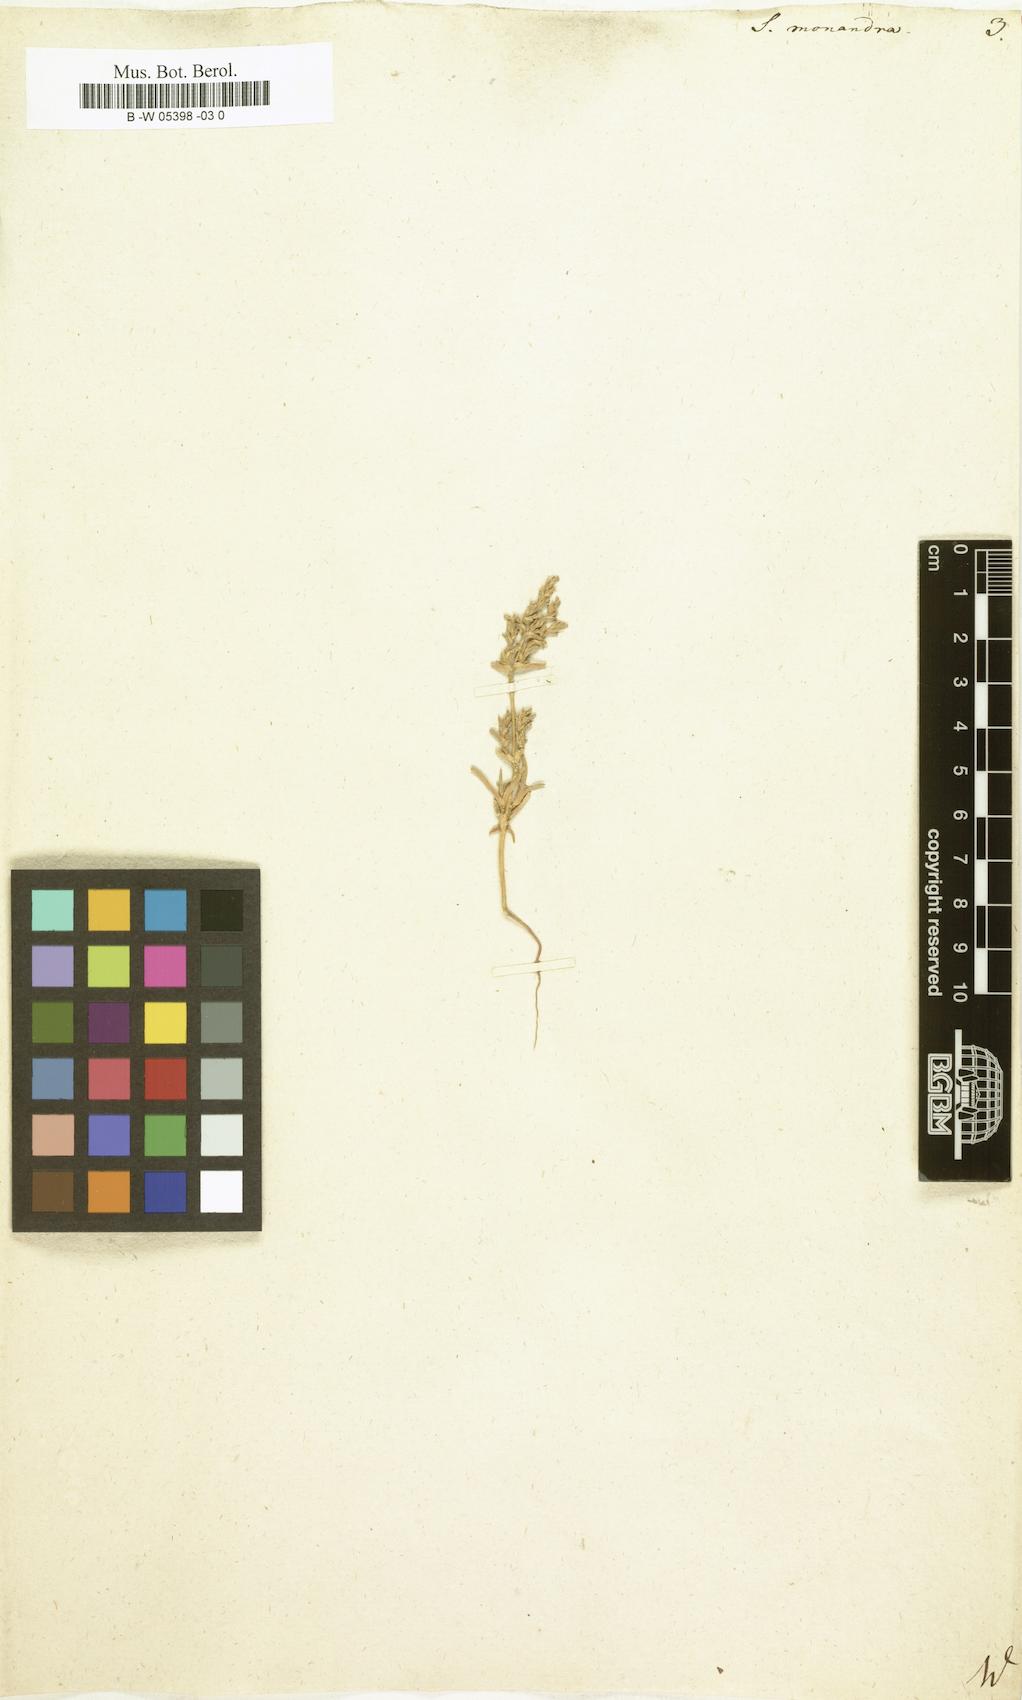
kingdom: Plantae
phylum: Tracheophyta
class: Magnoliopsida
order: Caryophyllales
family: Amaranthaceae
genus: Ofaiston
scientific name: Ofaiston monandrum
